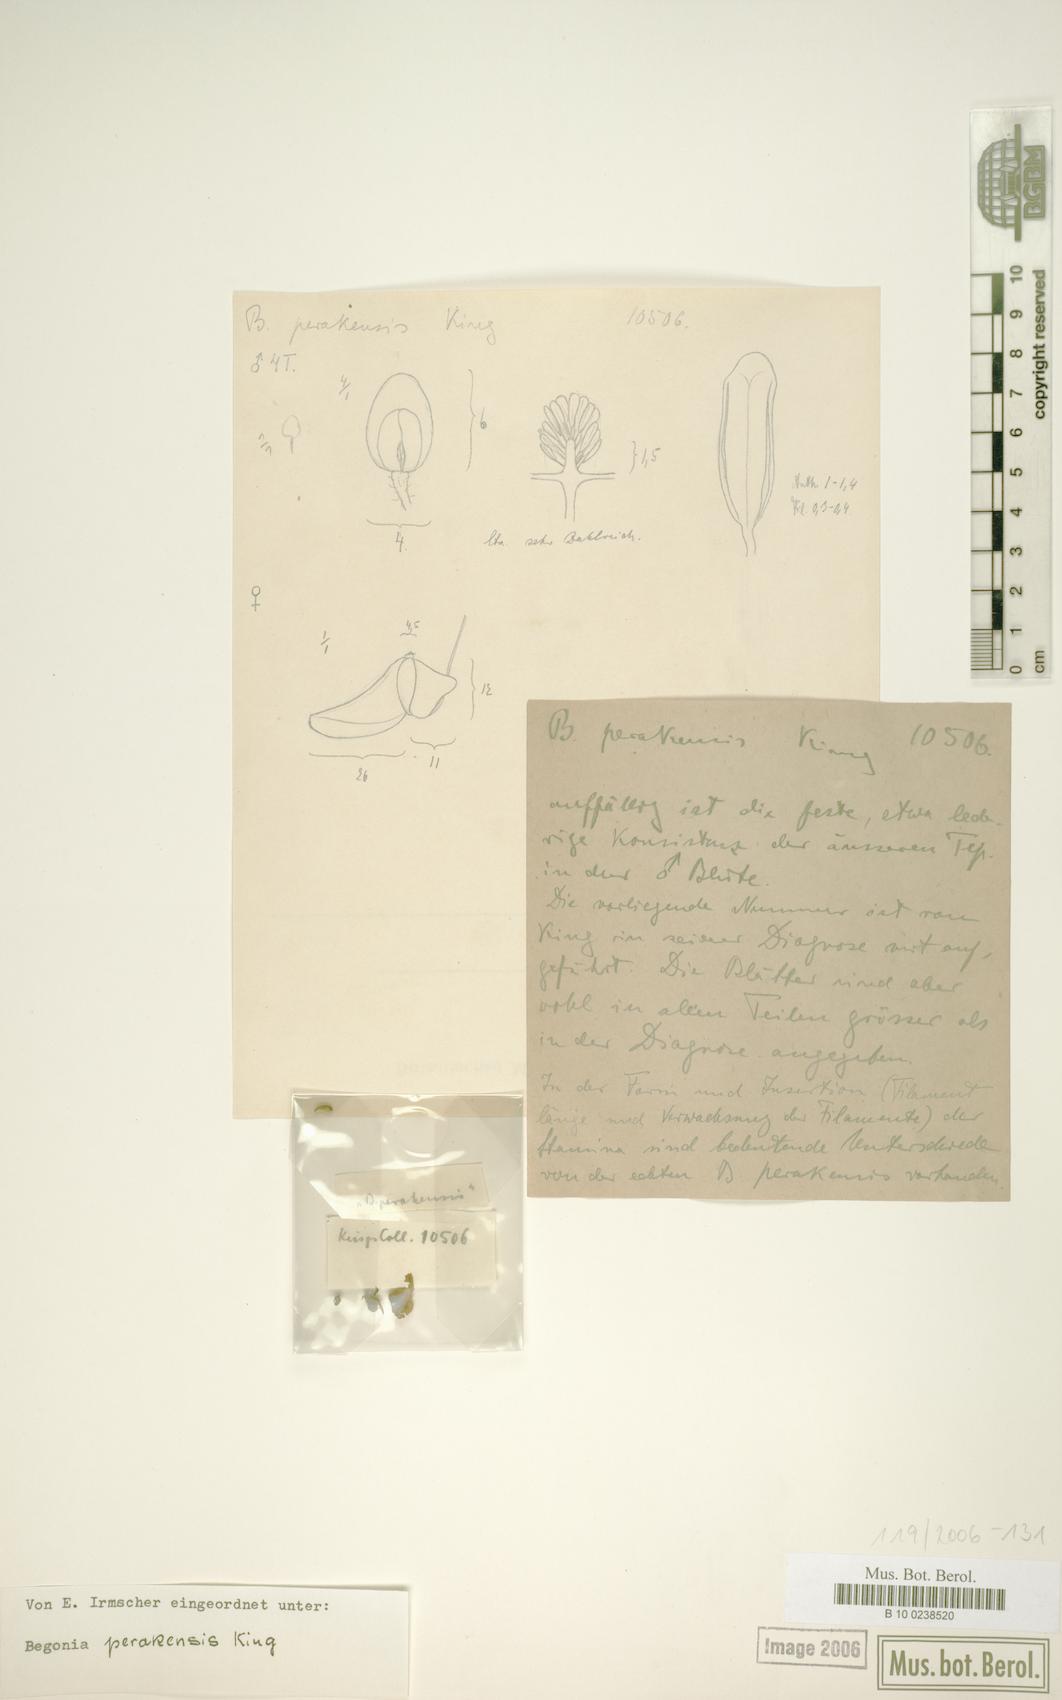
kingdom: Plantae
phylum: Tracheophyta
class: Magnoliopsida
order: Cucurbitales
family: Begoniaceae
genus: Begonia
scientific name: Begonia perakensis
